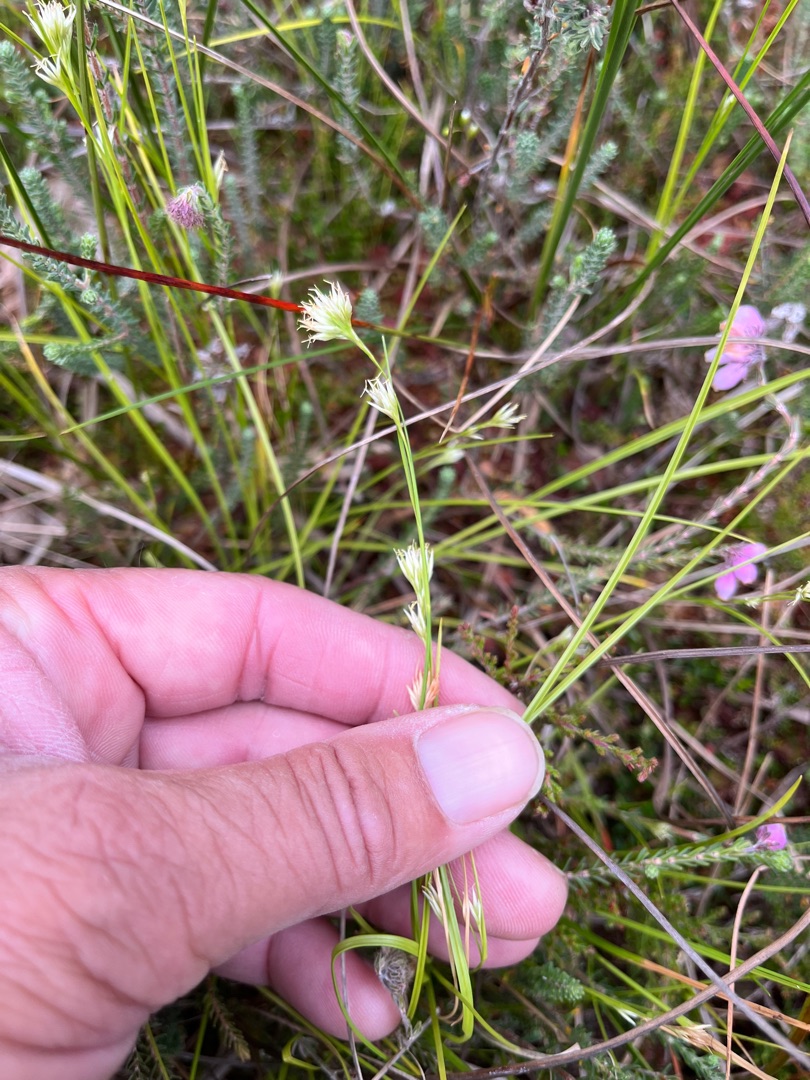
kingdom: Plantae
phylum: Tracheophyta
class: Liliopsida
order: Poales
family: Cyperaceae
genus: Rhynchospora
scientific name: Rhynchospora alba
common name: Hvid næbfrø
